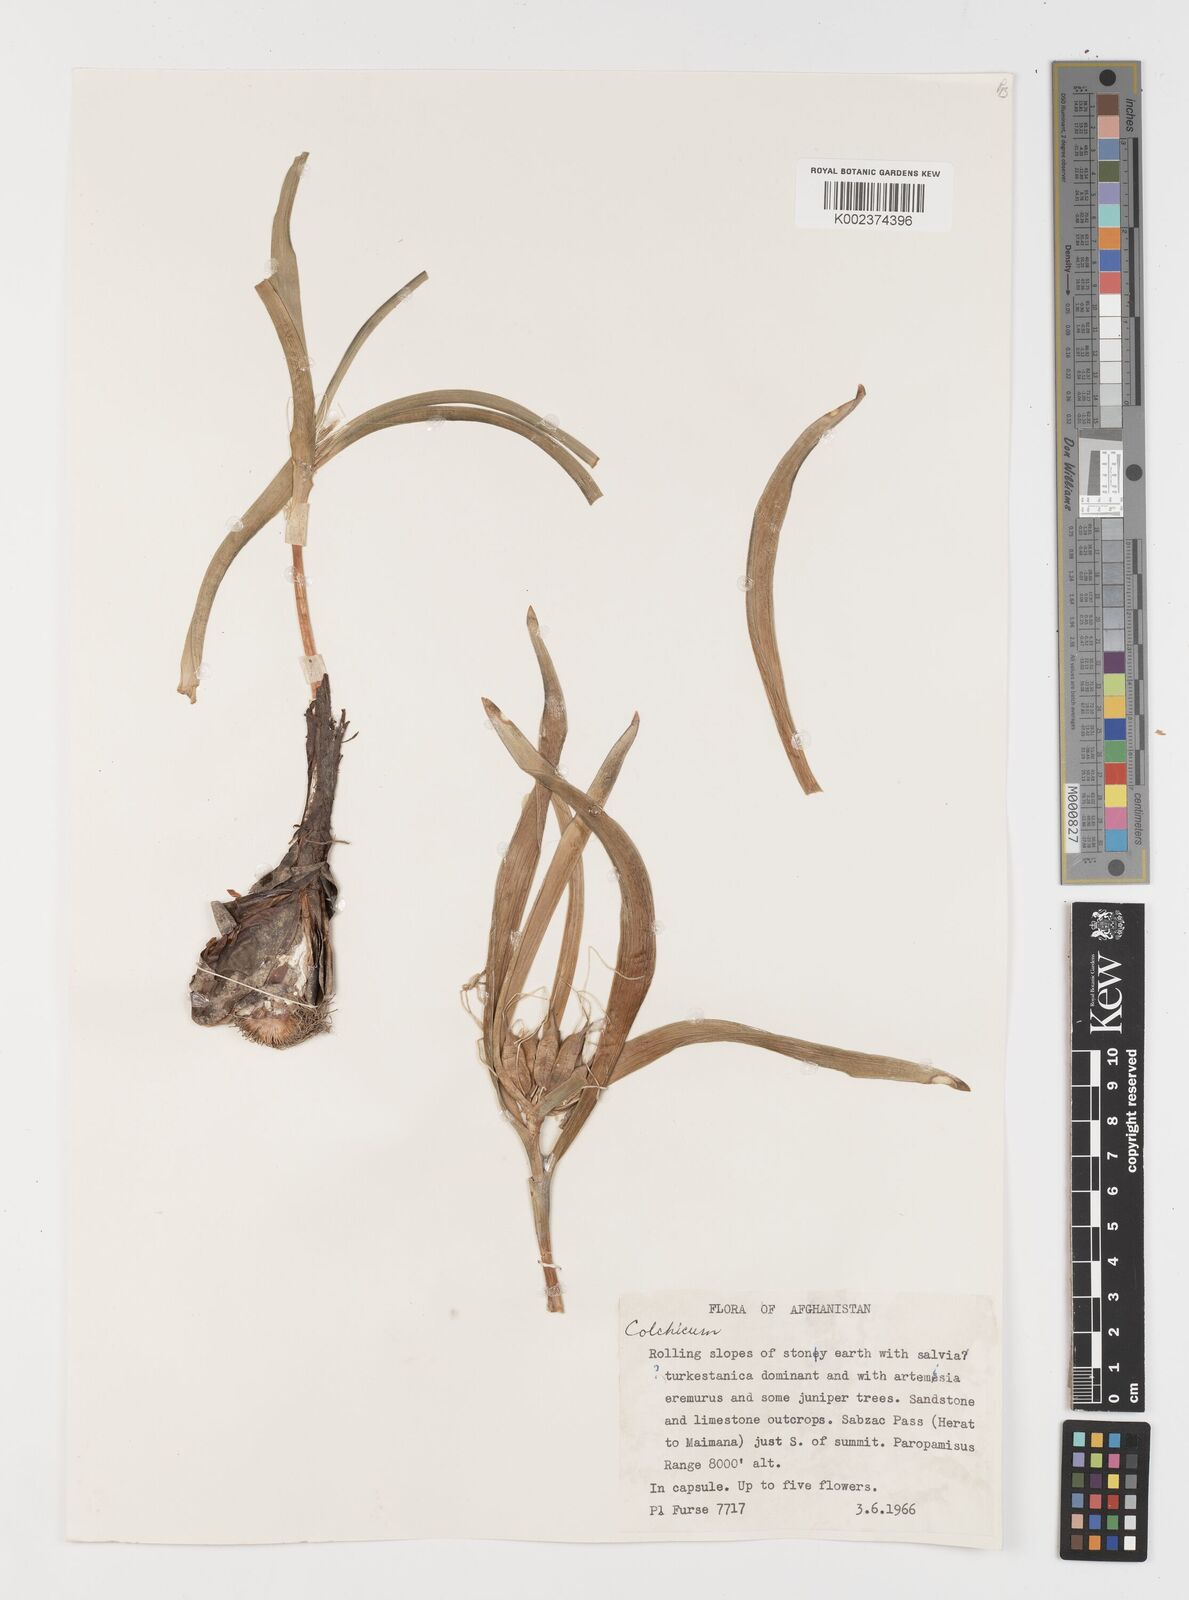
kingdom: Plantae
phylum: Tracheophyta
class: Liliopsida
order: Liliales
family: Colchicaceae
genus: Colchicum
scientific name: Colchicum
